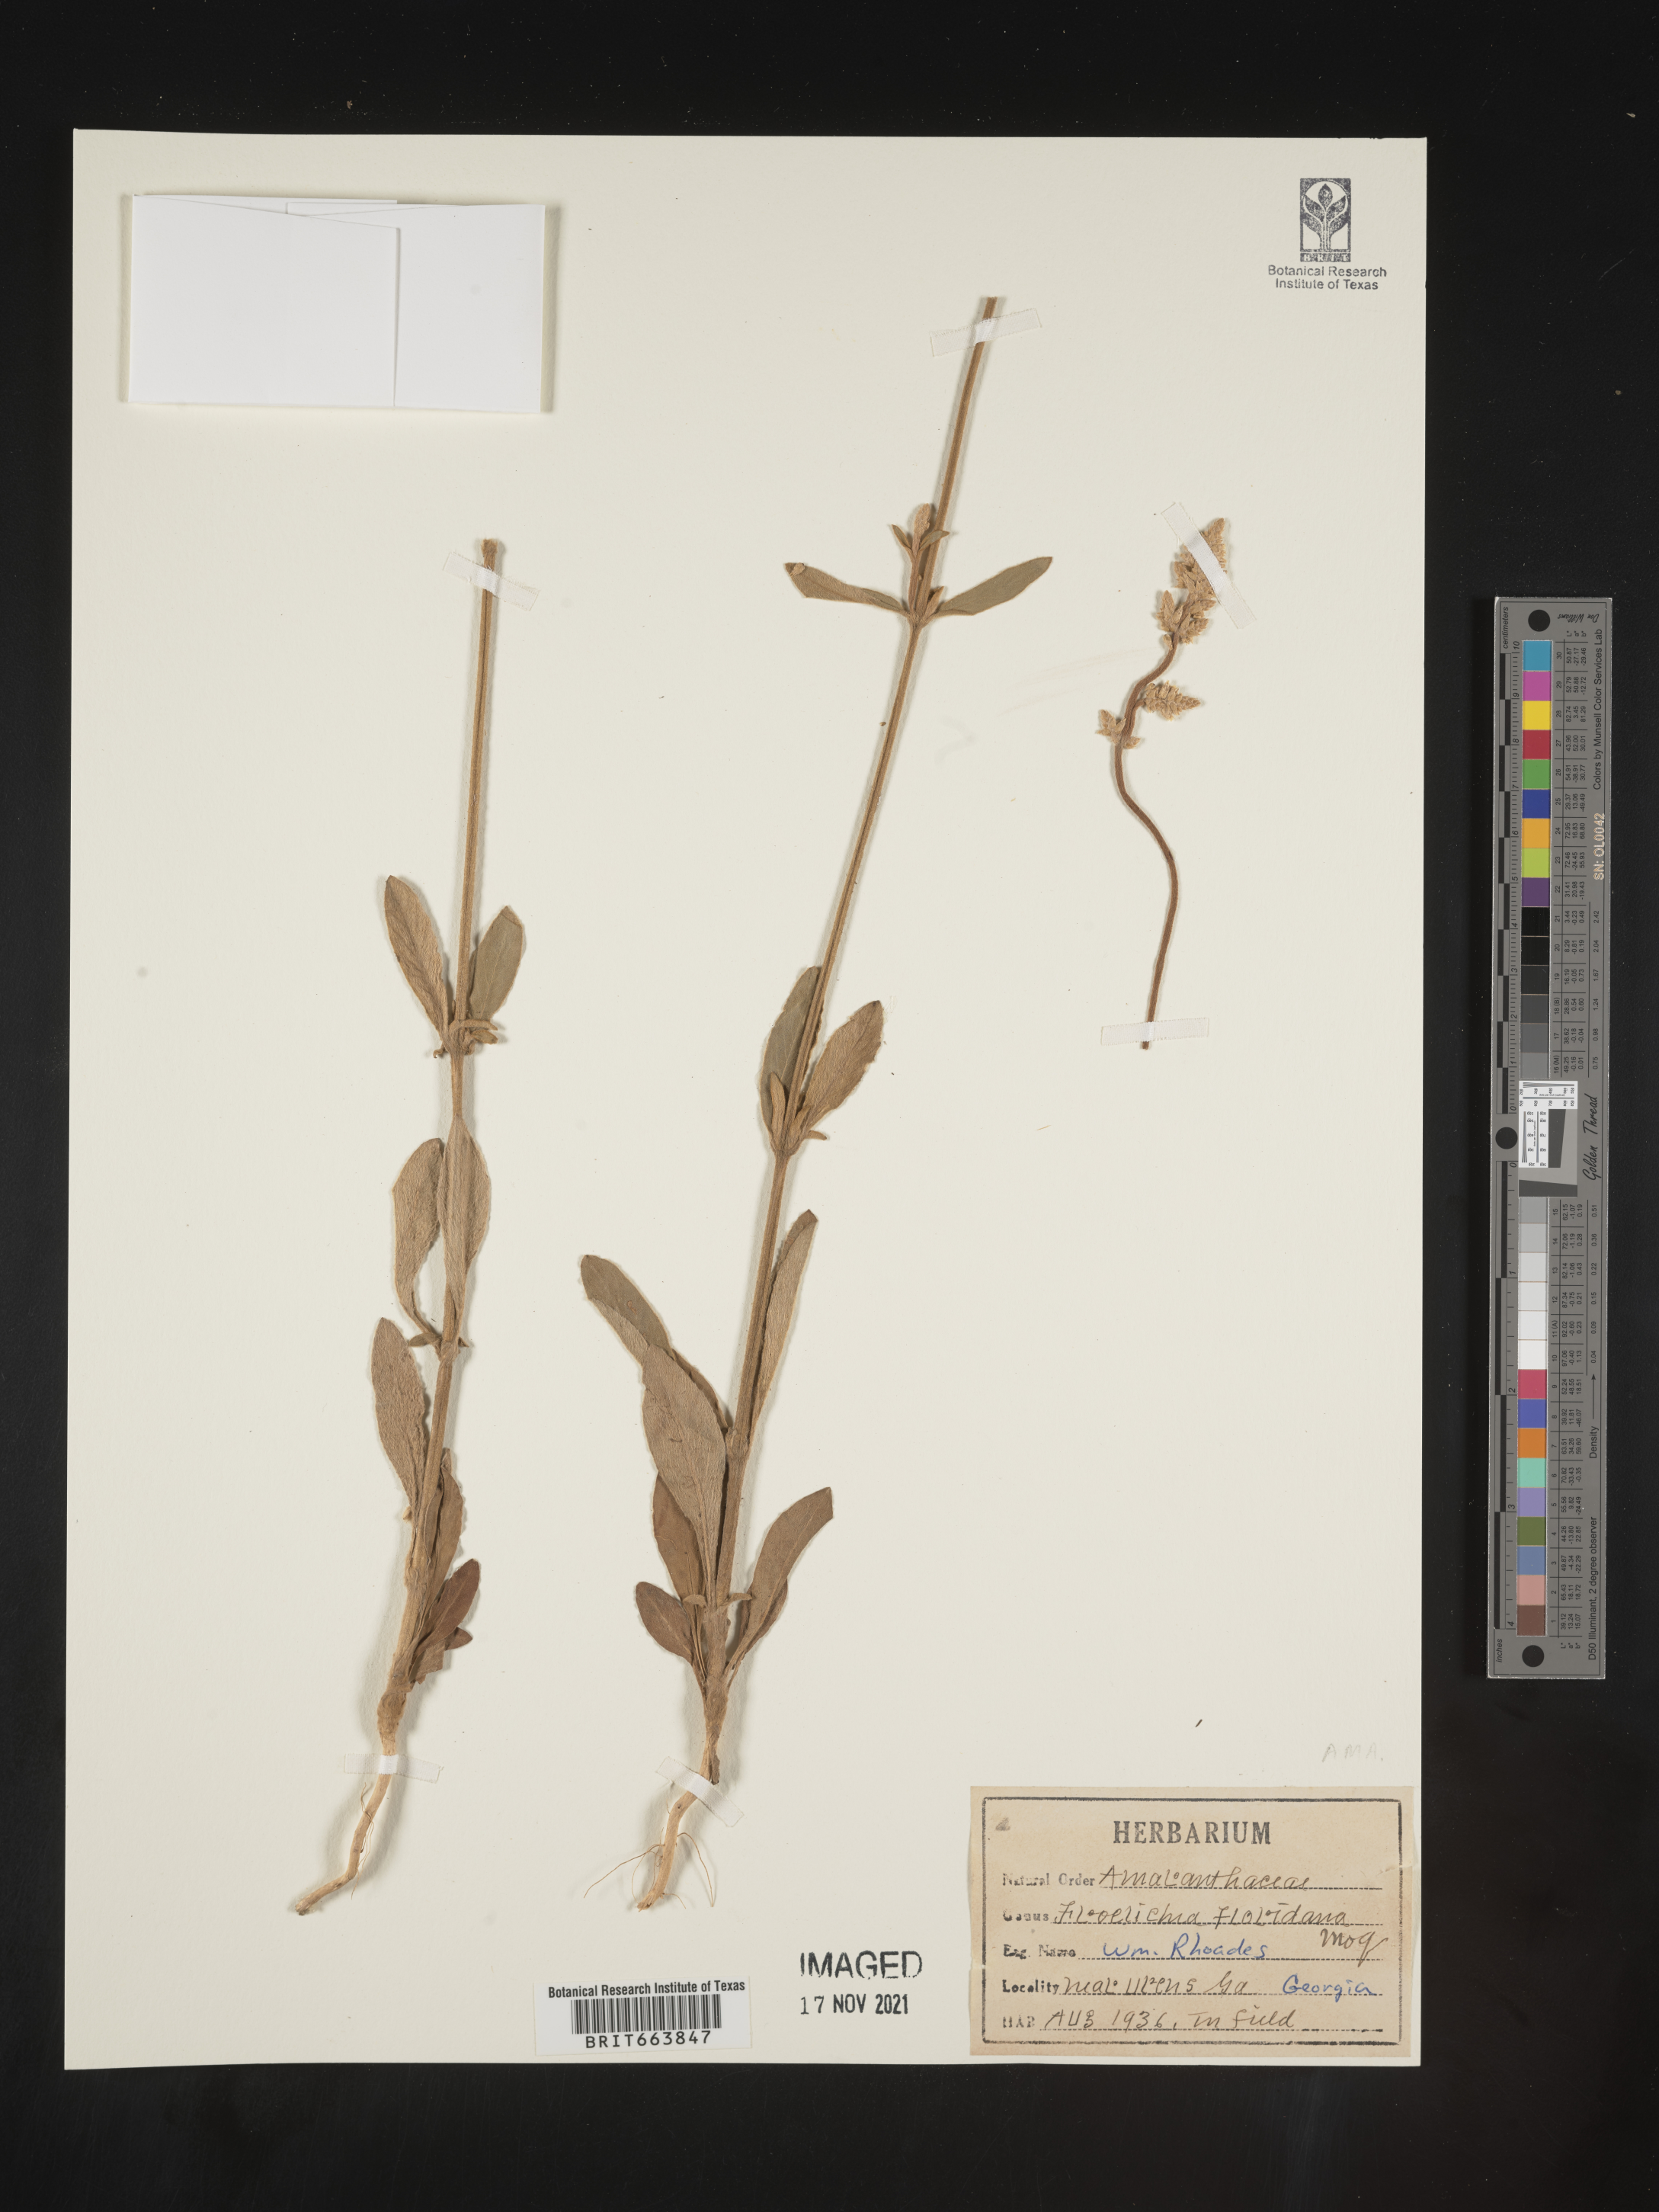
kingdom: Plantae
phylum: Tracheophyta
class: Magnoliopsida
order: Caryophyllales
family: Amaranthaceae
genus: Froelichia
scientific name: Froelichia floridana
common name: Florida snake-cotton
